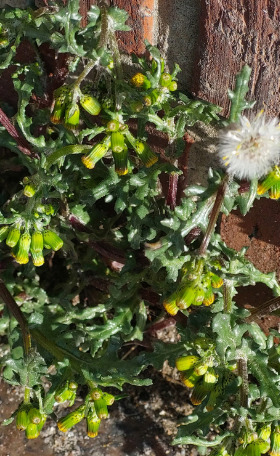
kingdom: Plantae
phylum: Tracheophyta
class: Magnoliopsida
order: Asterales
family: Asteraceae
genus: Senecio
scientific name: Senecio vulgaris
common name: Almindelig brandbæger
